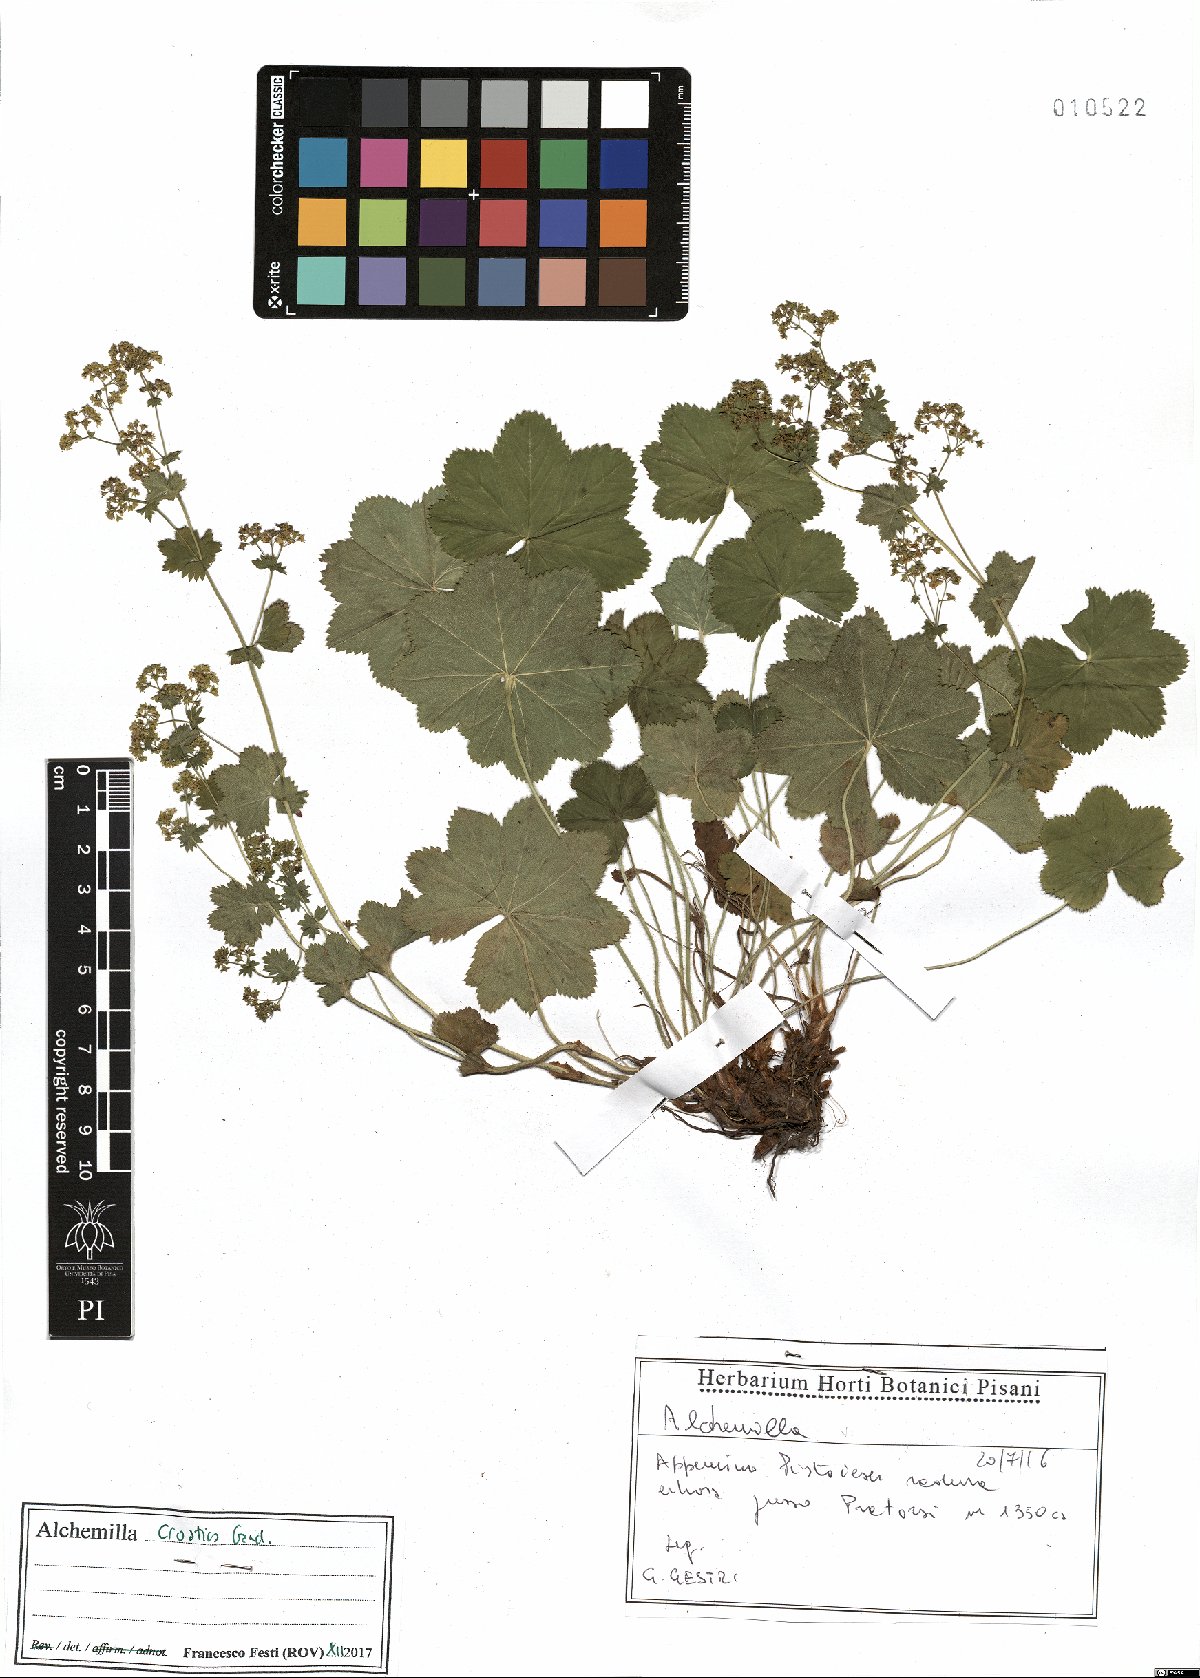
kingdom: Plantae
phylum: Tracheophyta
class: Magnoliopsida
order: Rosales
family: Rosaceae
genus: Alchemilla
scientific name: Alchemilla croatica
